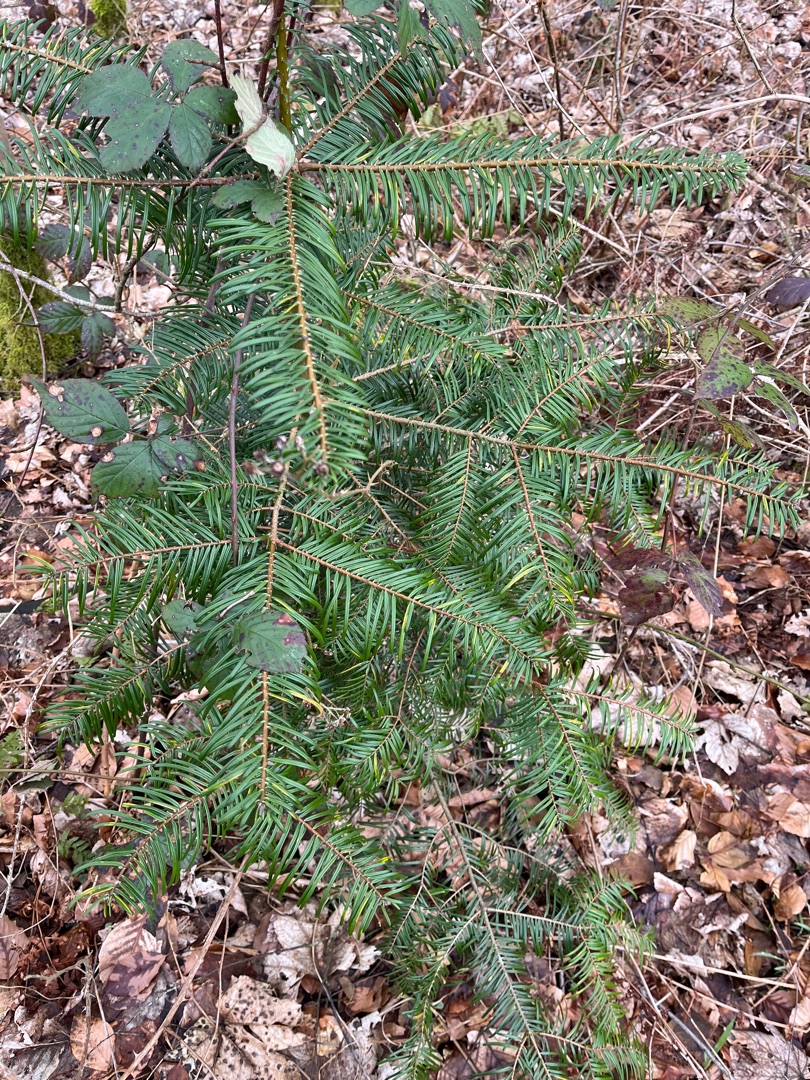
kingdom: Plantae
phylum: Tracheophyta
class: Pinopsida
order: Pinales
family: Pinaceae
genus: Abies
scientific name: Abies grandis
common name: Kæmpegran
